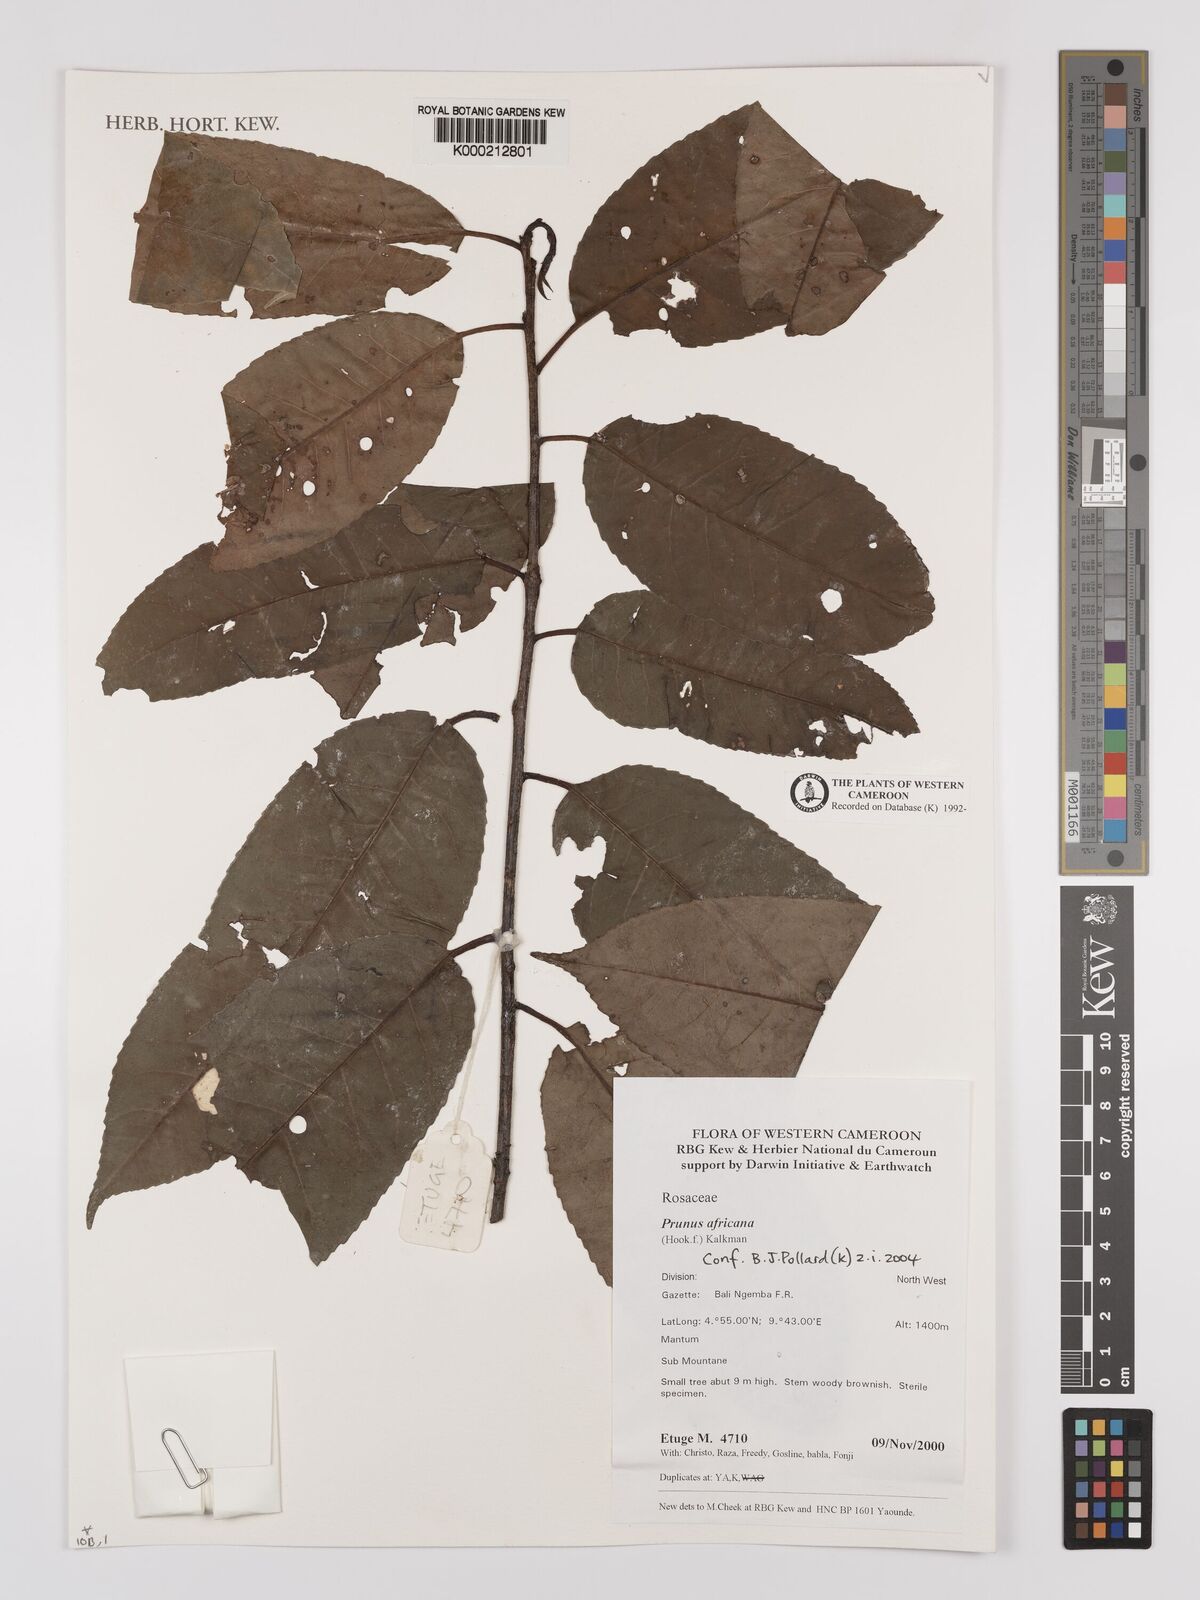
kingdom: Plantae
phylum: Tracheophyta
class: Magnoliopsida
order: Rosales
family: Rosaceae
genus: Prunus
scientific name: Prunus africana
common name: African cherry
